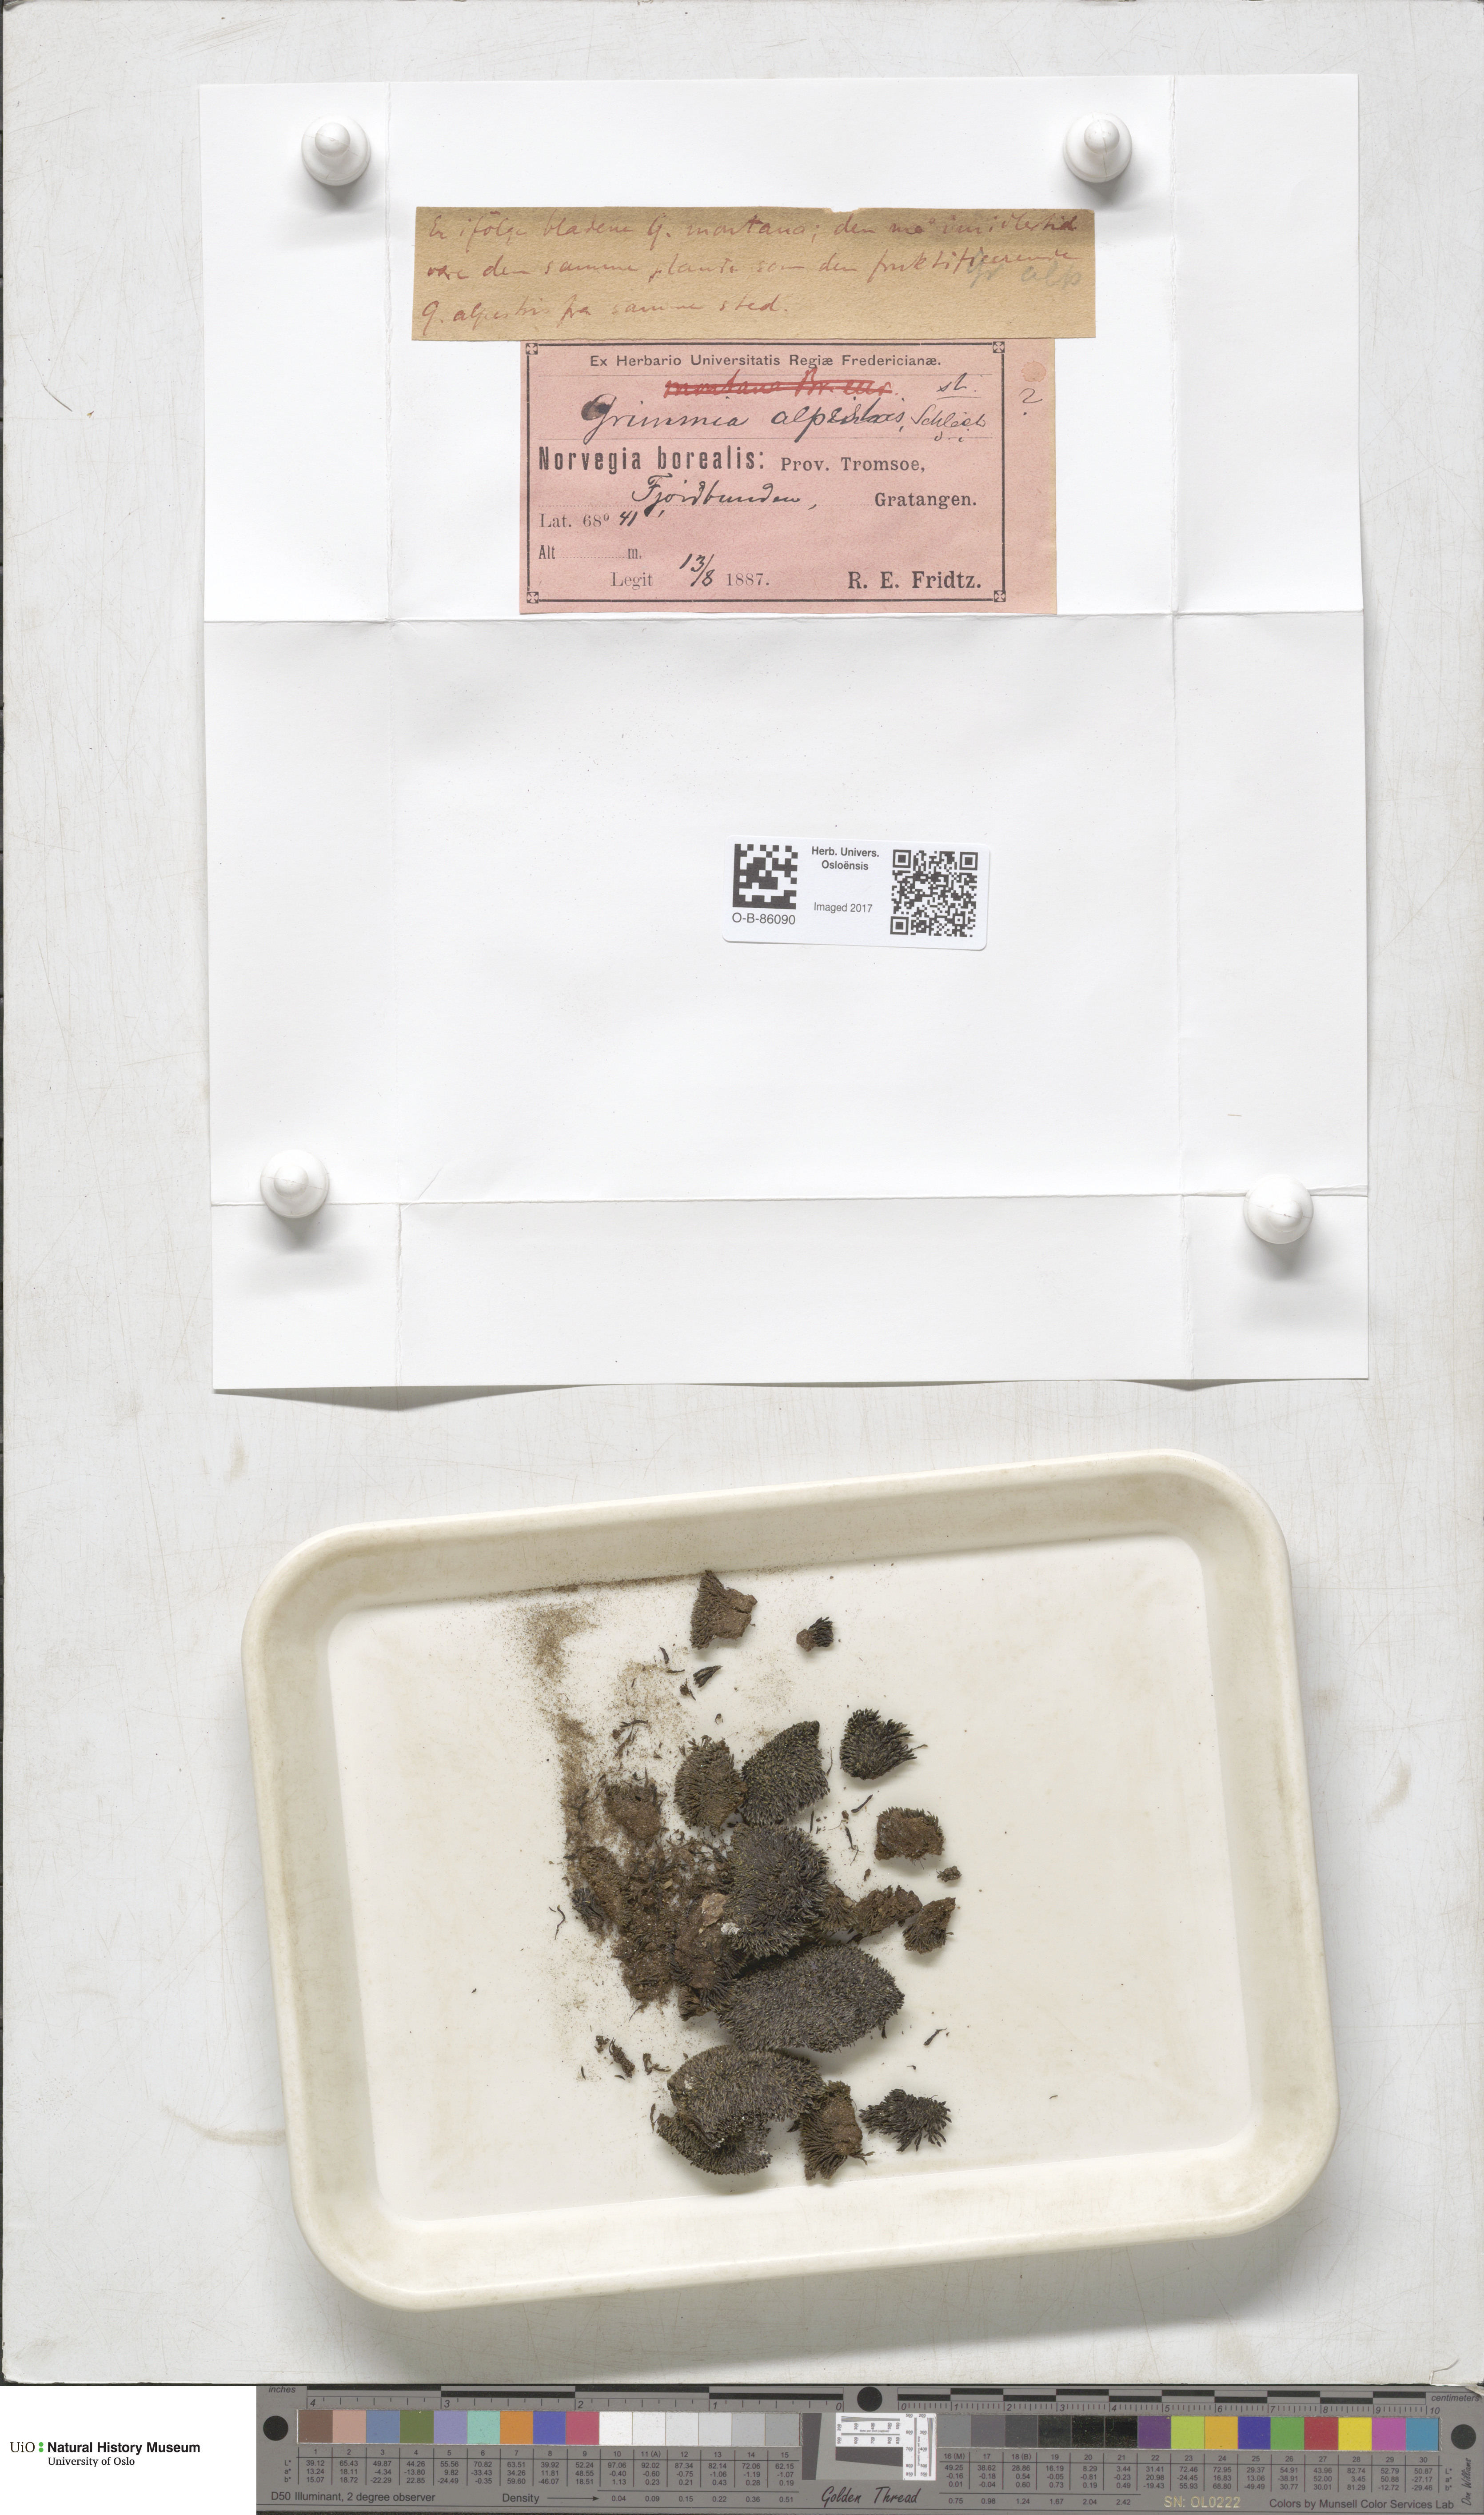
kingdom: Plantae
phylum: Bryophyta
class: Bryopsida
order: Grimmiales
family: Grimmiaceae
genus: Grimmia
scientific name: Grimmia alpestris
